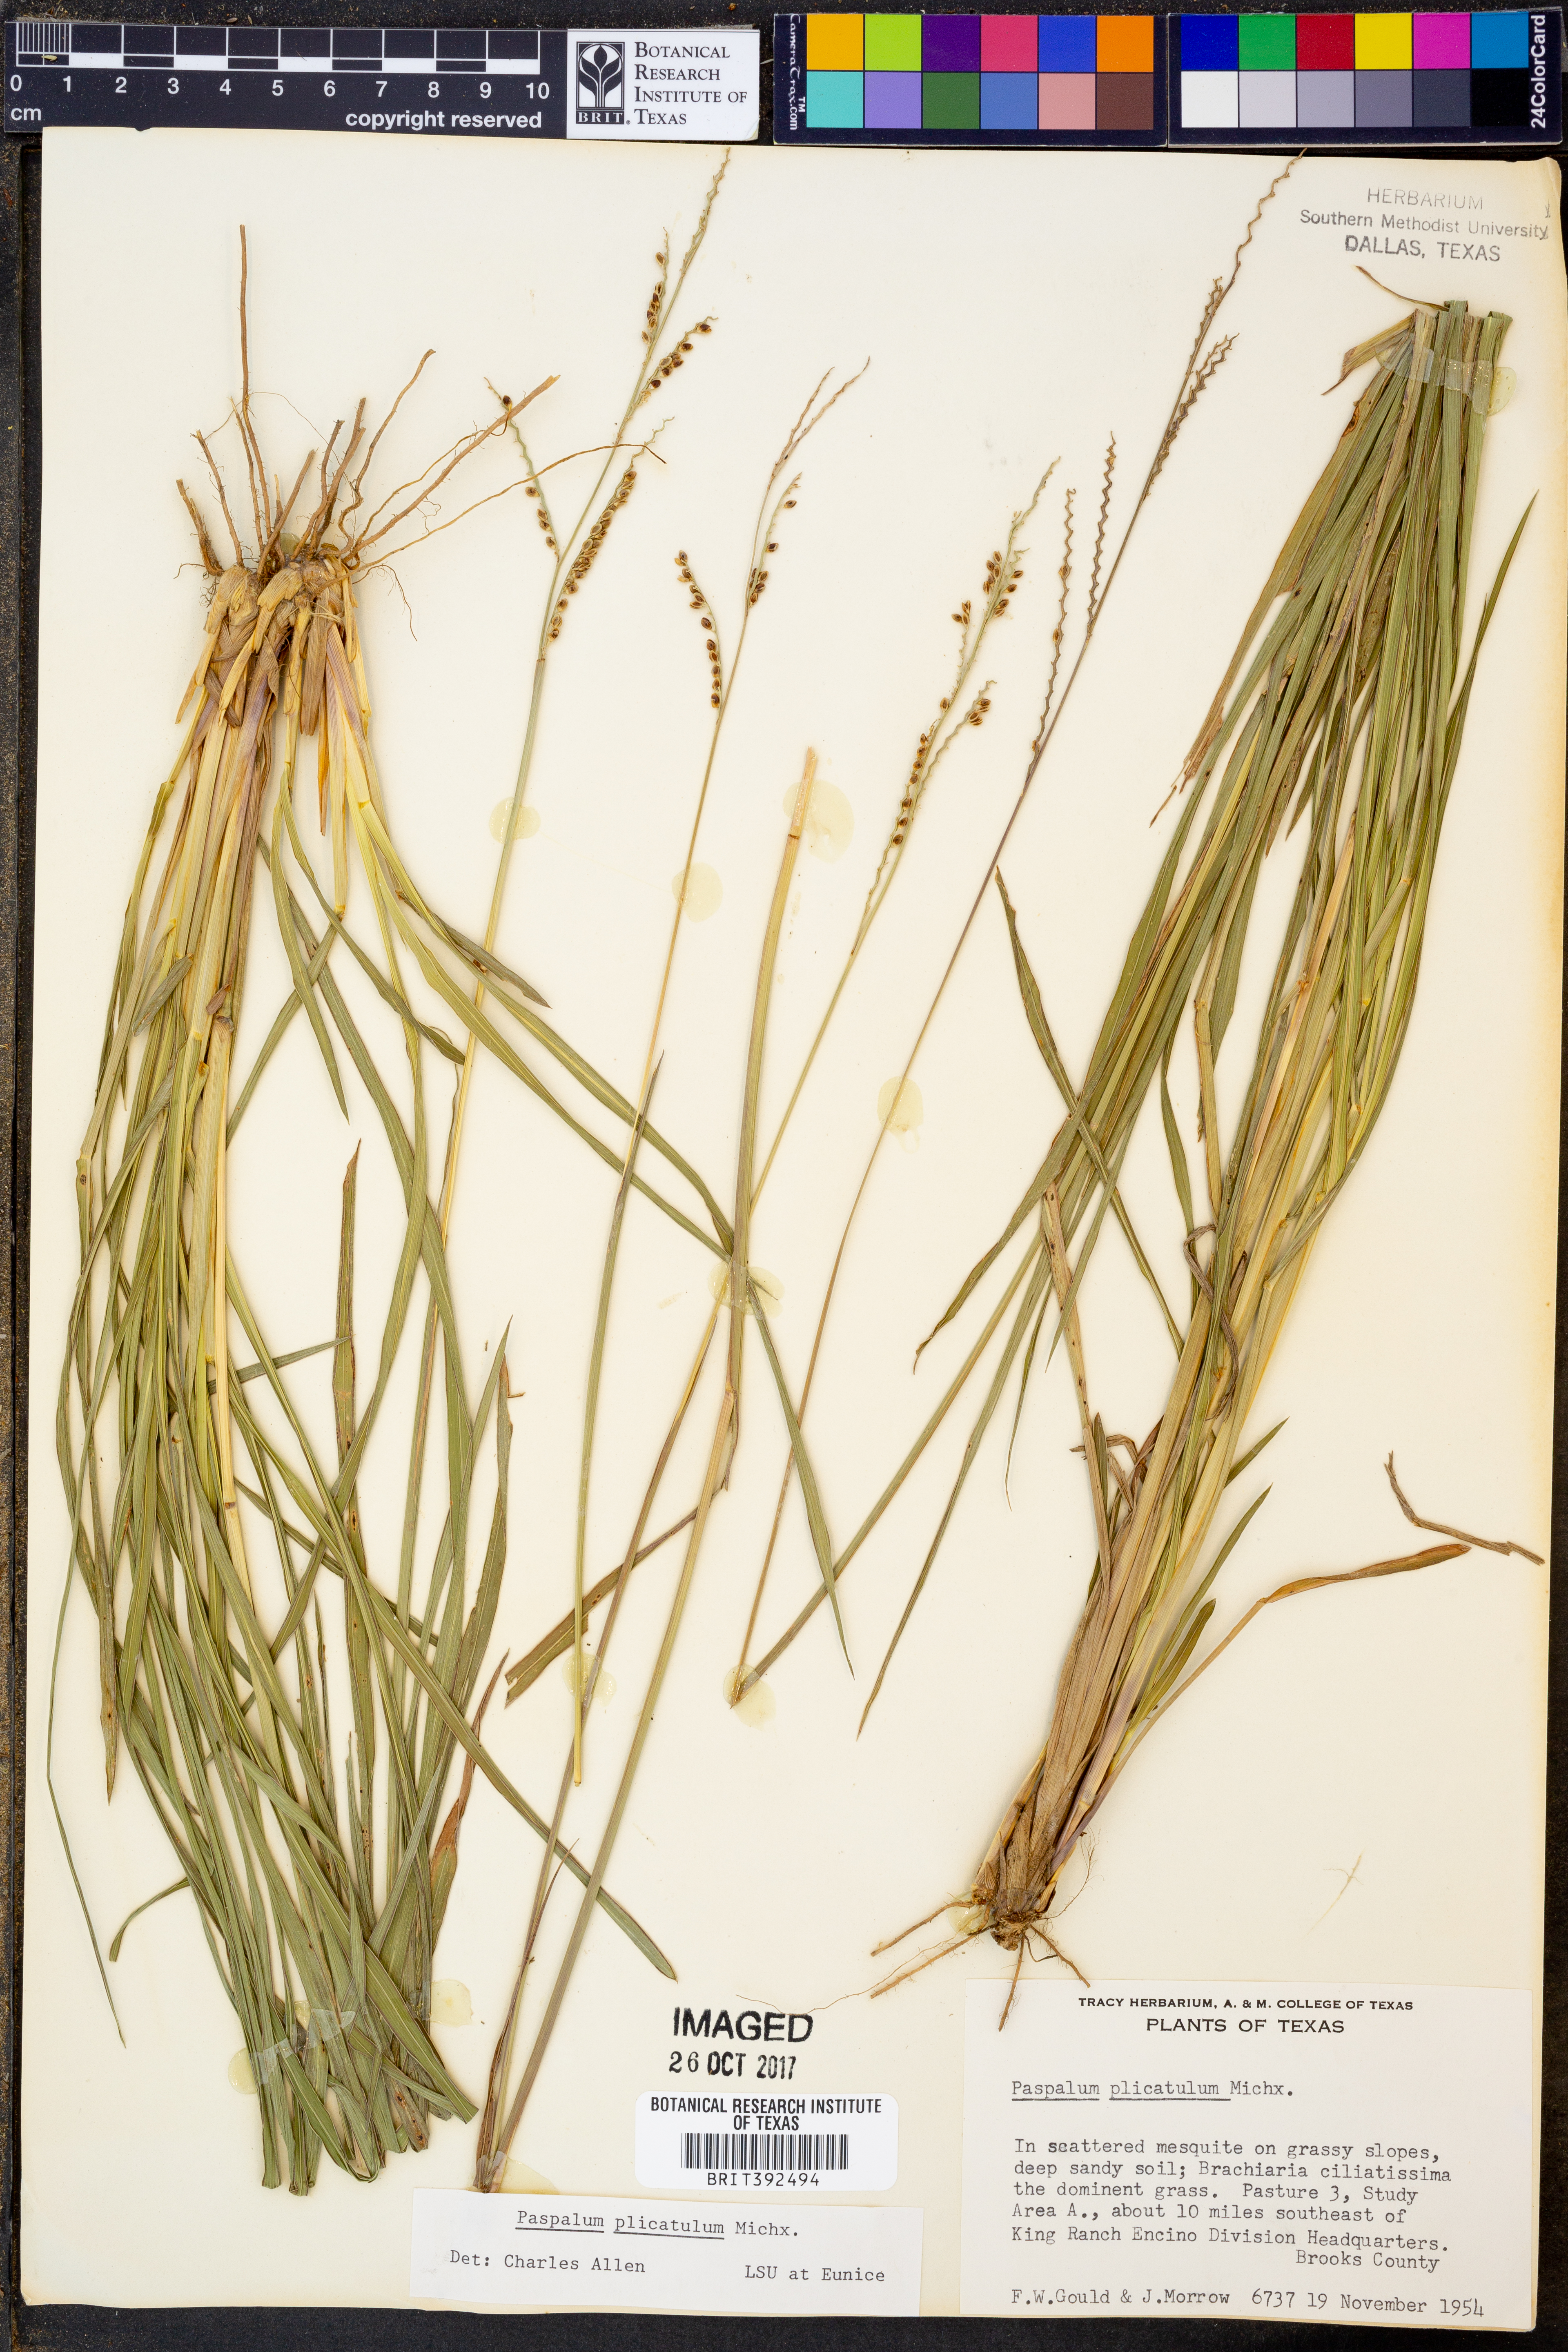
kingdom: Plantae
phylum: Tracheophyta
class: Liliopsida
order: Poales
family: Poaceae
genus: Paspalum
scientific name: Paspalum plicatulum
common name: Top paspalum
